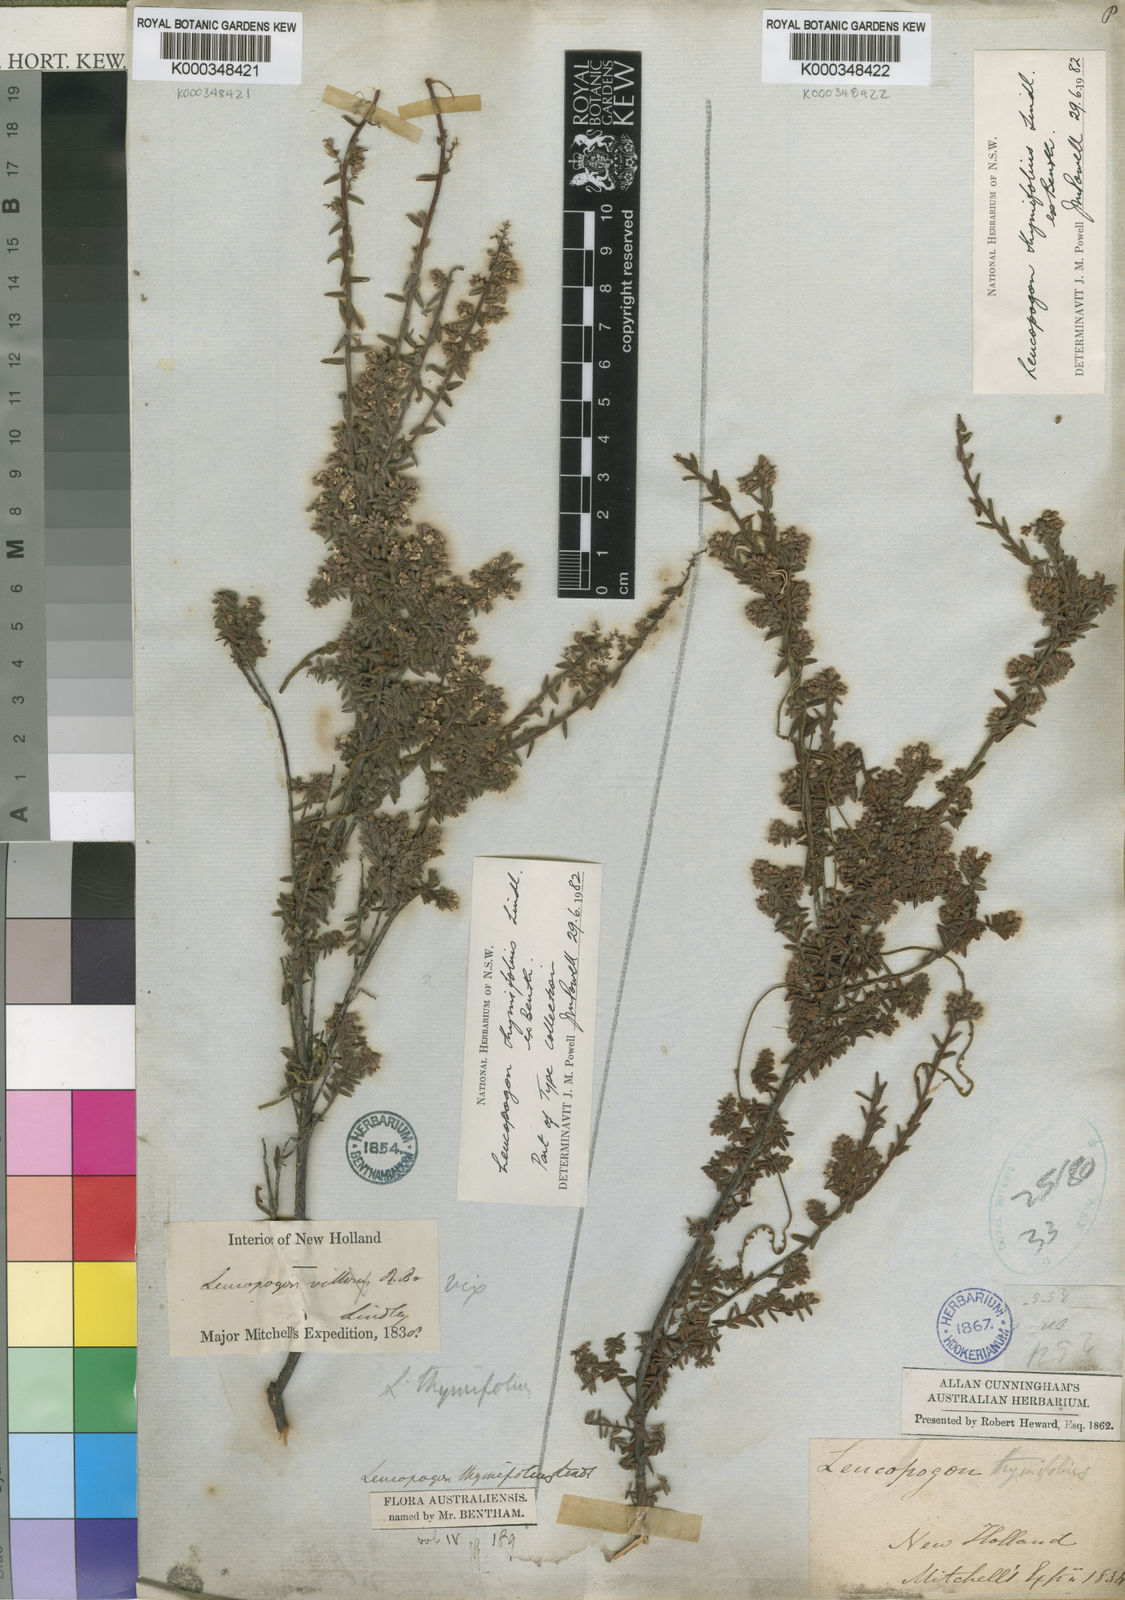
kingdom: Plantae
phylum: Tracheophyta
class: Magnoliopsida
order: Ericales
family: Ericaceae
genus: Leucopogon
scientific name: Leucopogon thymifolius
